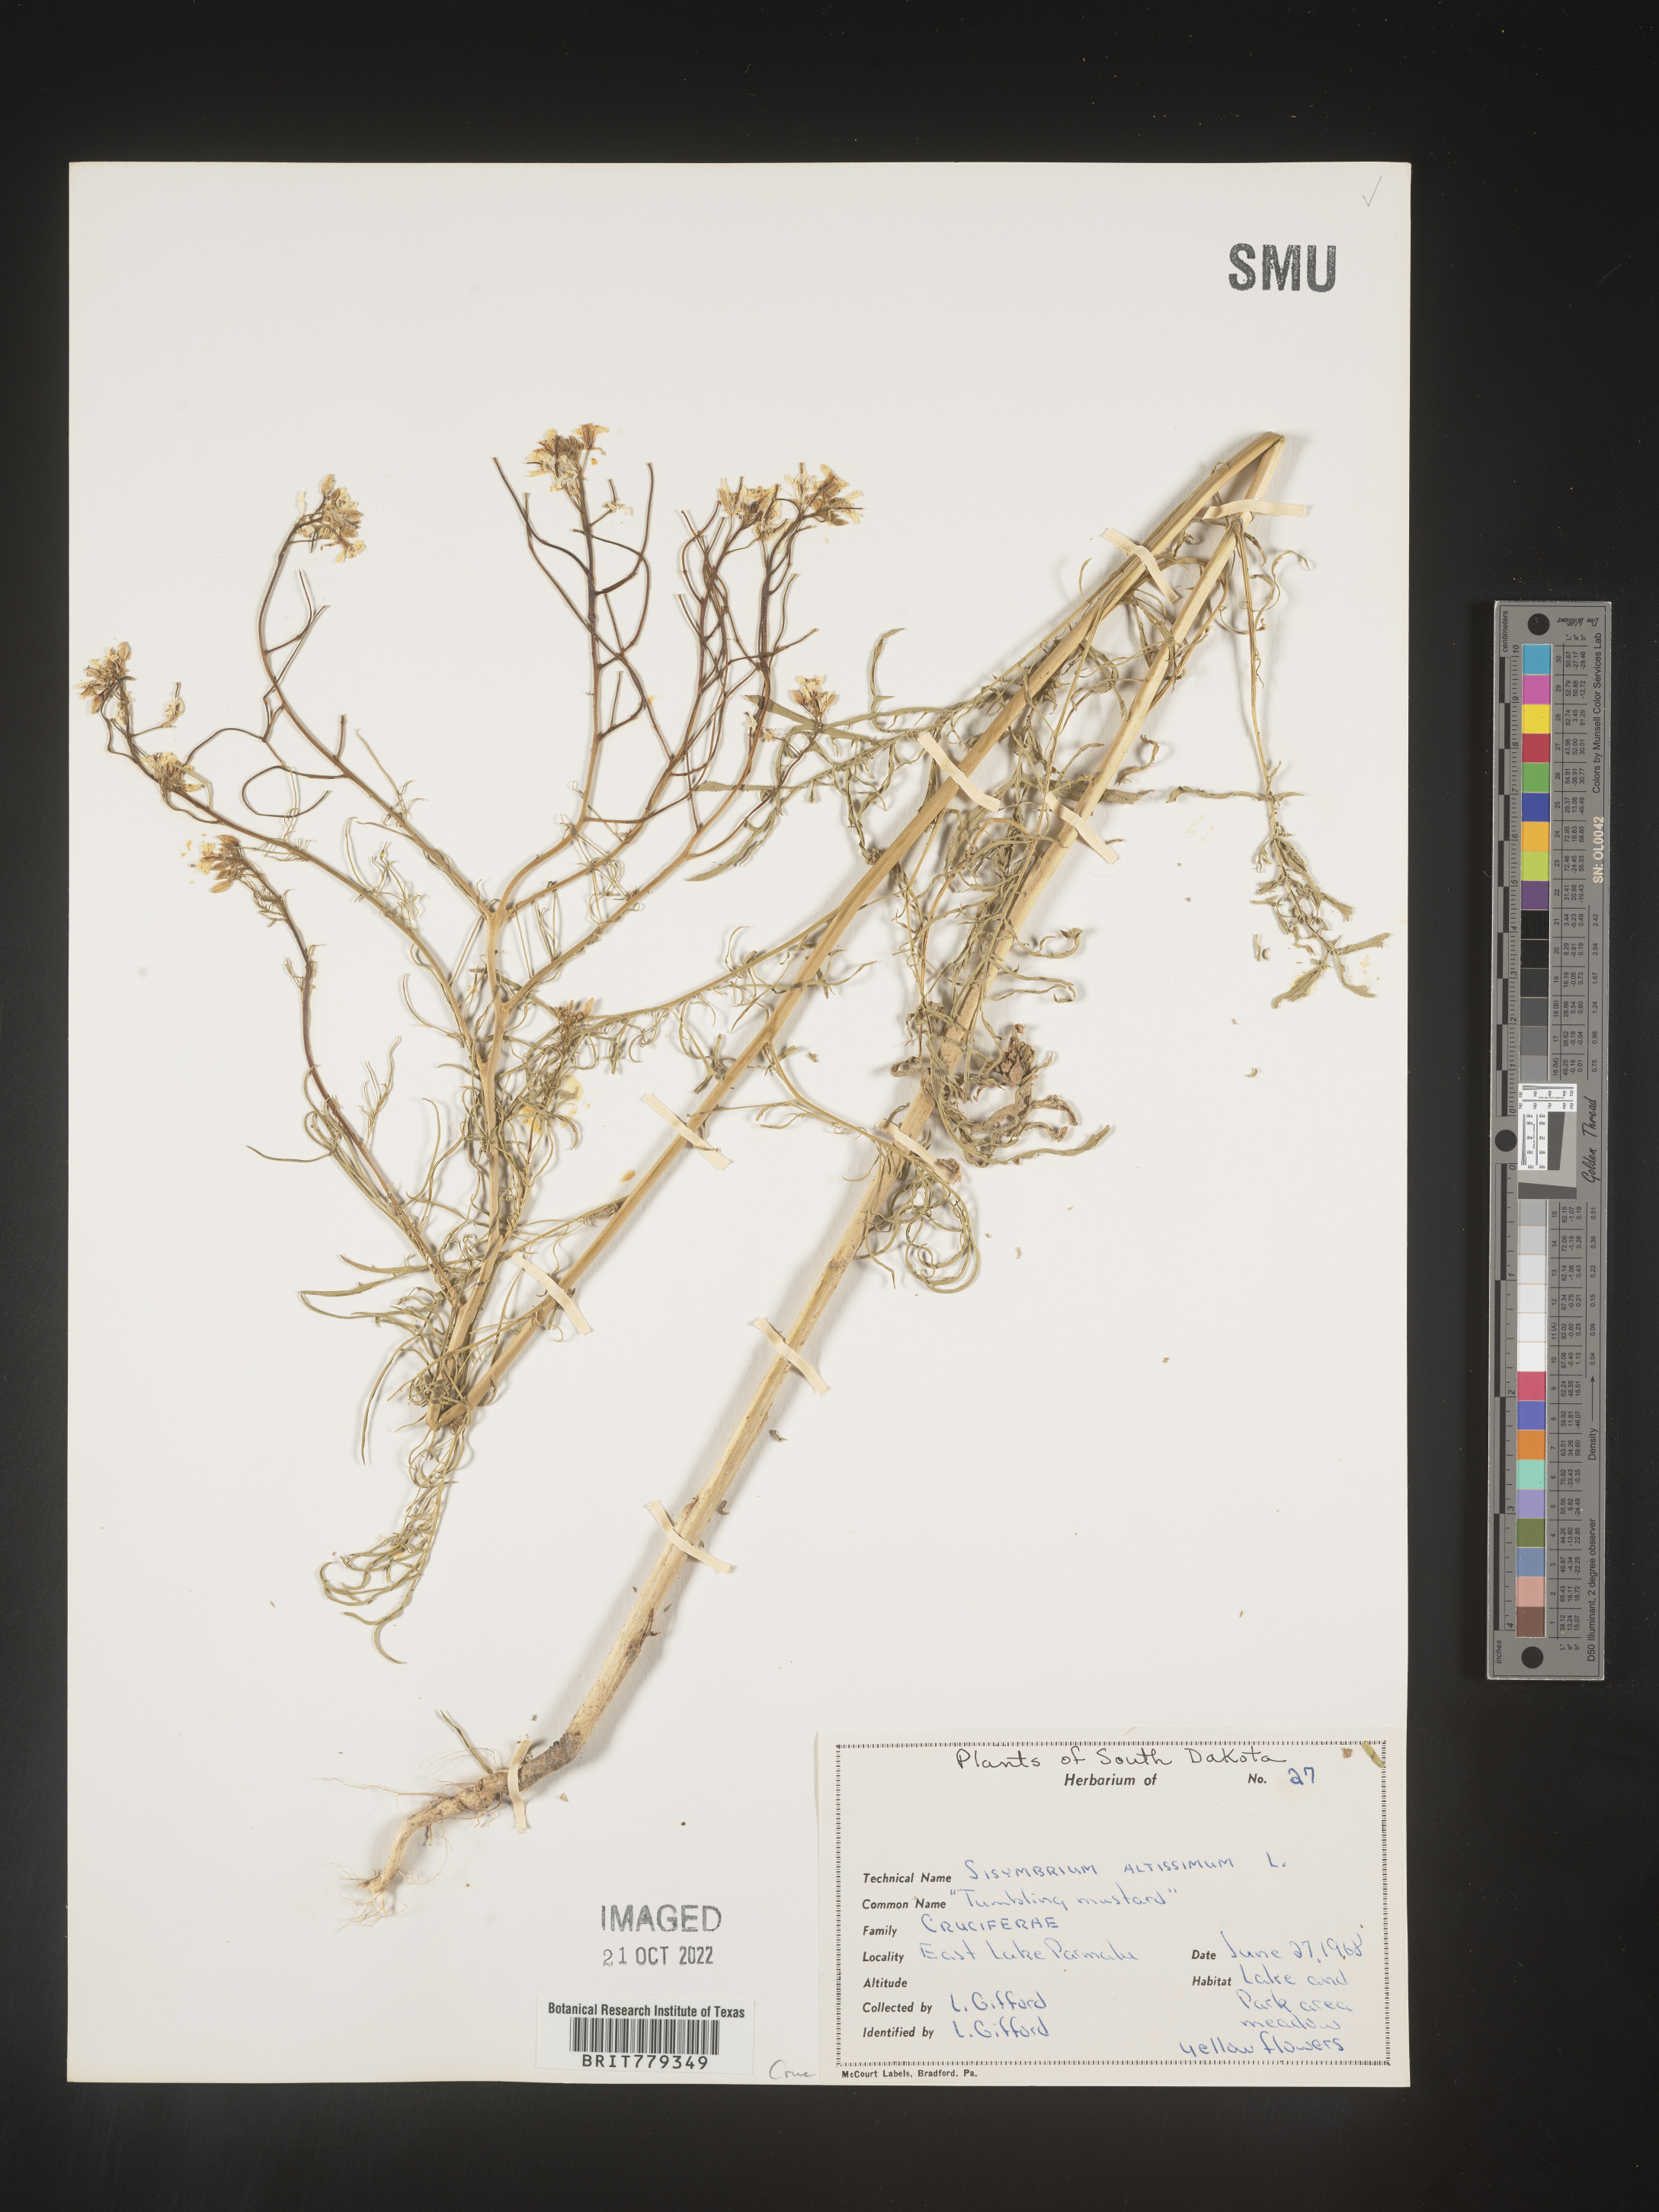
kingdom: Plantae
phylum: Tracheophyta
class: Magnoliopsida
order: Brassicales
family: Brassicaceae
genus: Sisymbrium
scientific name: Sisymbrium altissimum
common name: Tall rocket
